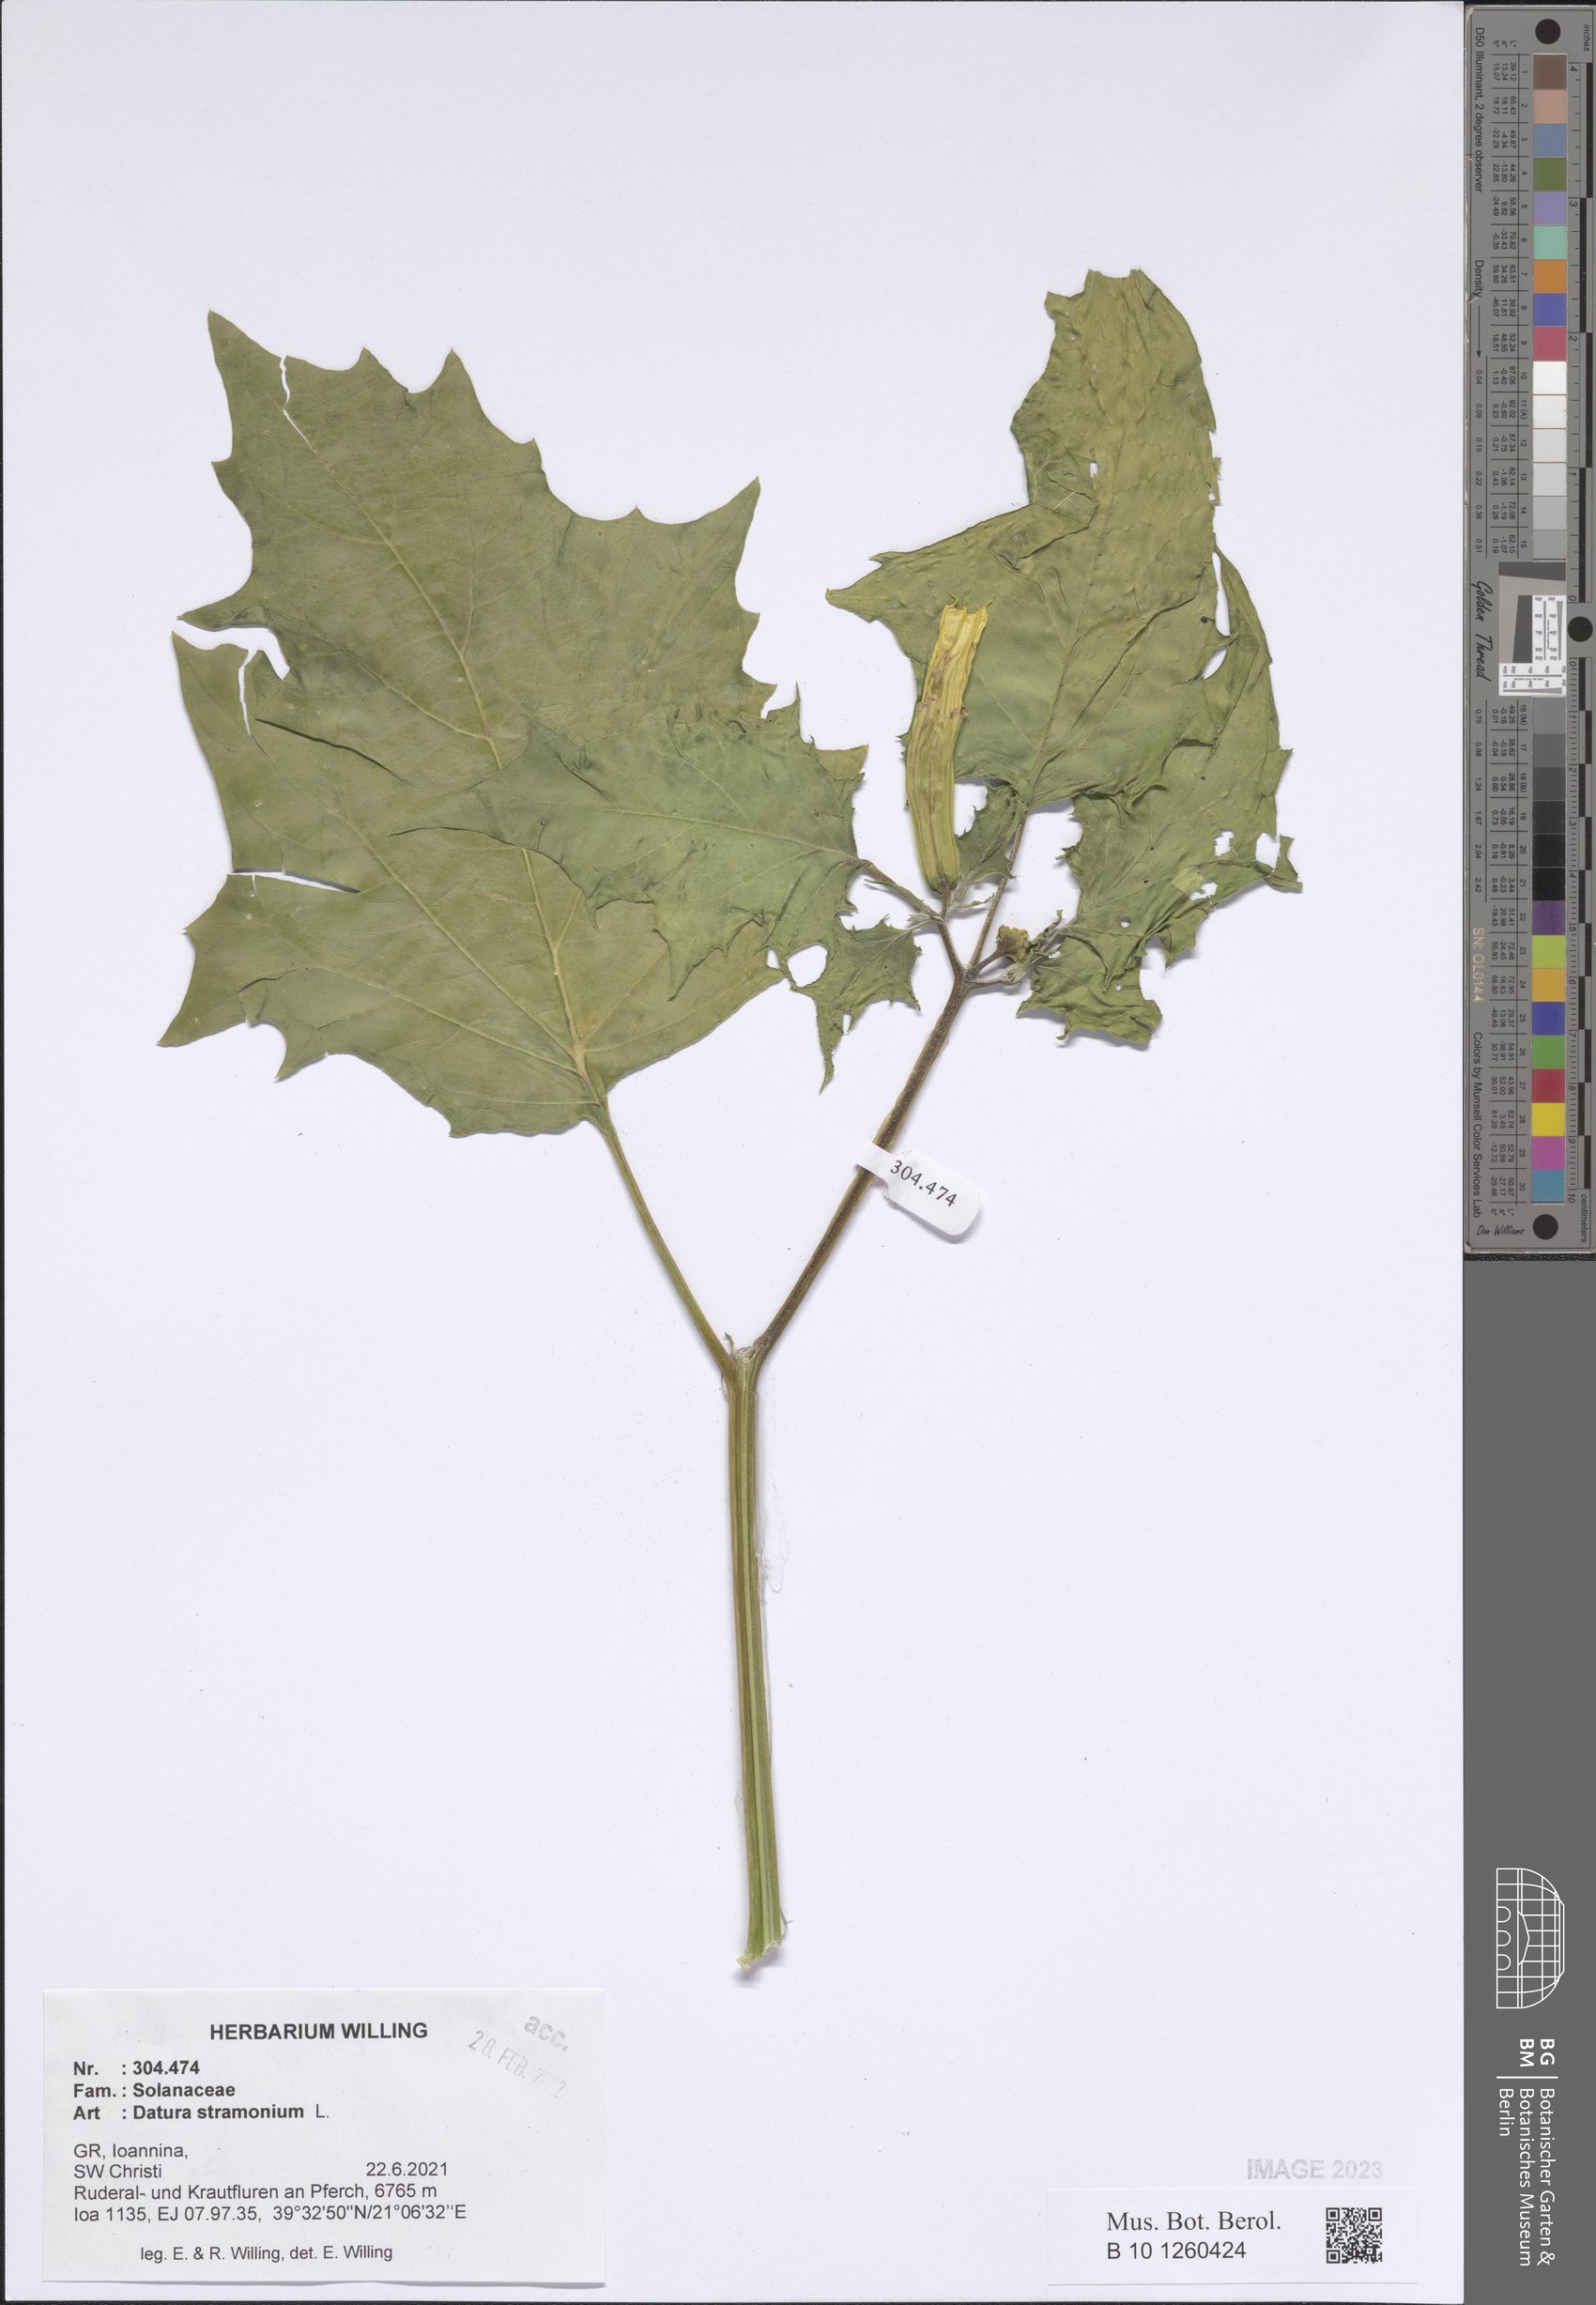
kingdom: Plantae
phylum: Tracheophyta
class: Magnoliopsida
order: Solanales
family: Solanaceae
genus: Datura
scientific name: Datura stramonium
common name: Thorn-apple
